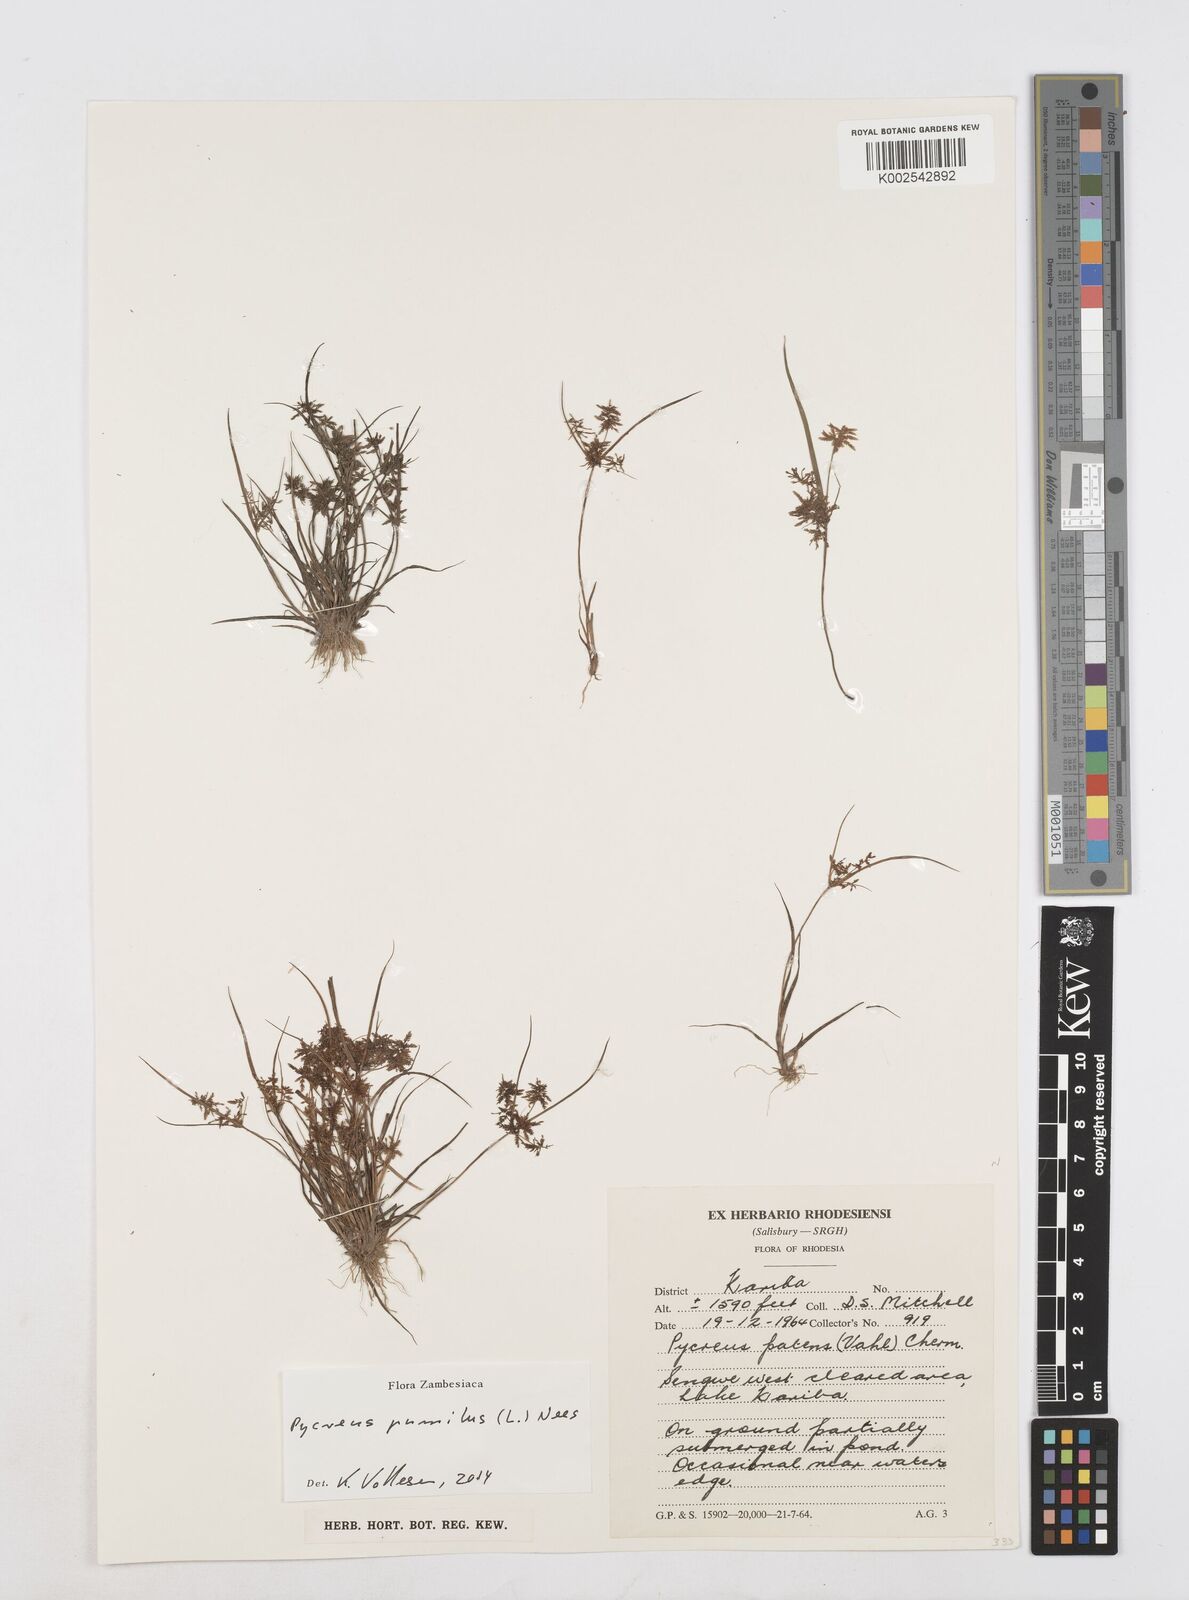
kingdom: Plantae
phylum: Tracheophyta
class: Liliopsida
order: Poales
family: Cyperaceae
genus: Cyperus
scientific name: Cyperus pumilus
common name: Low flatsedge
